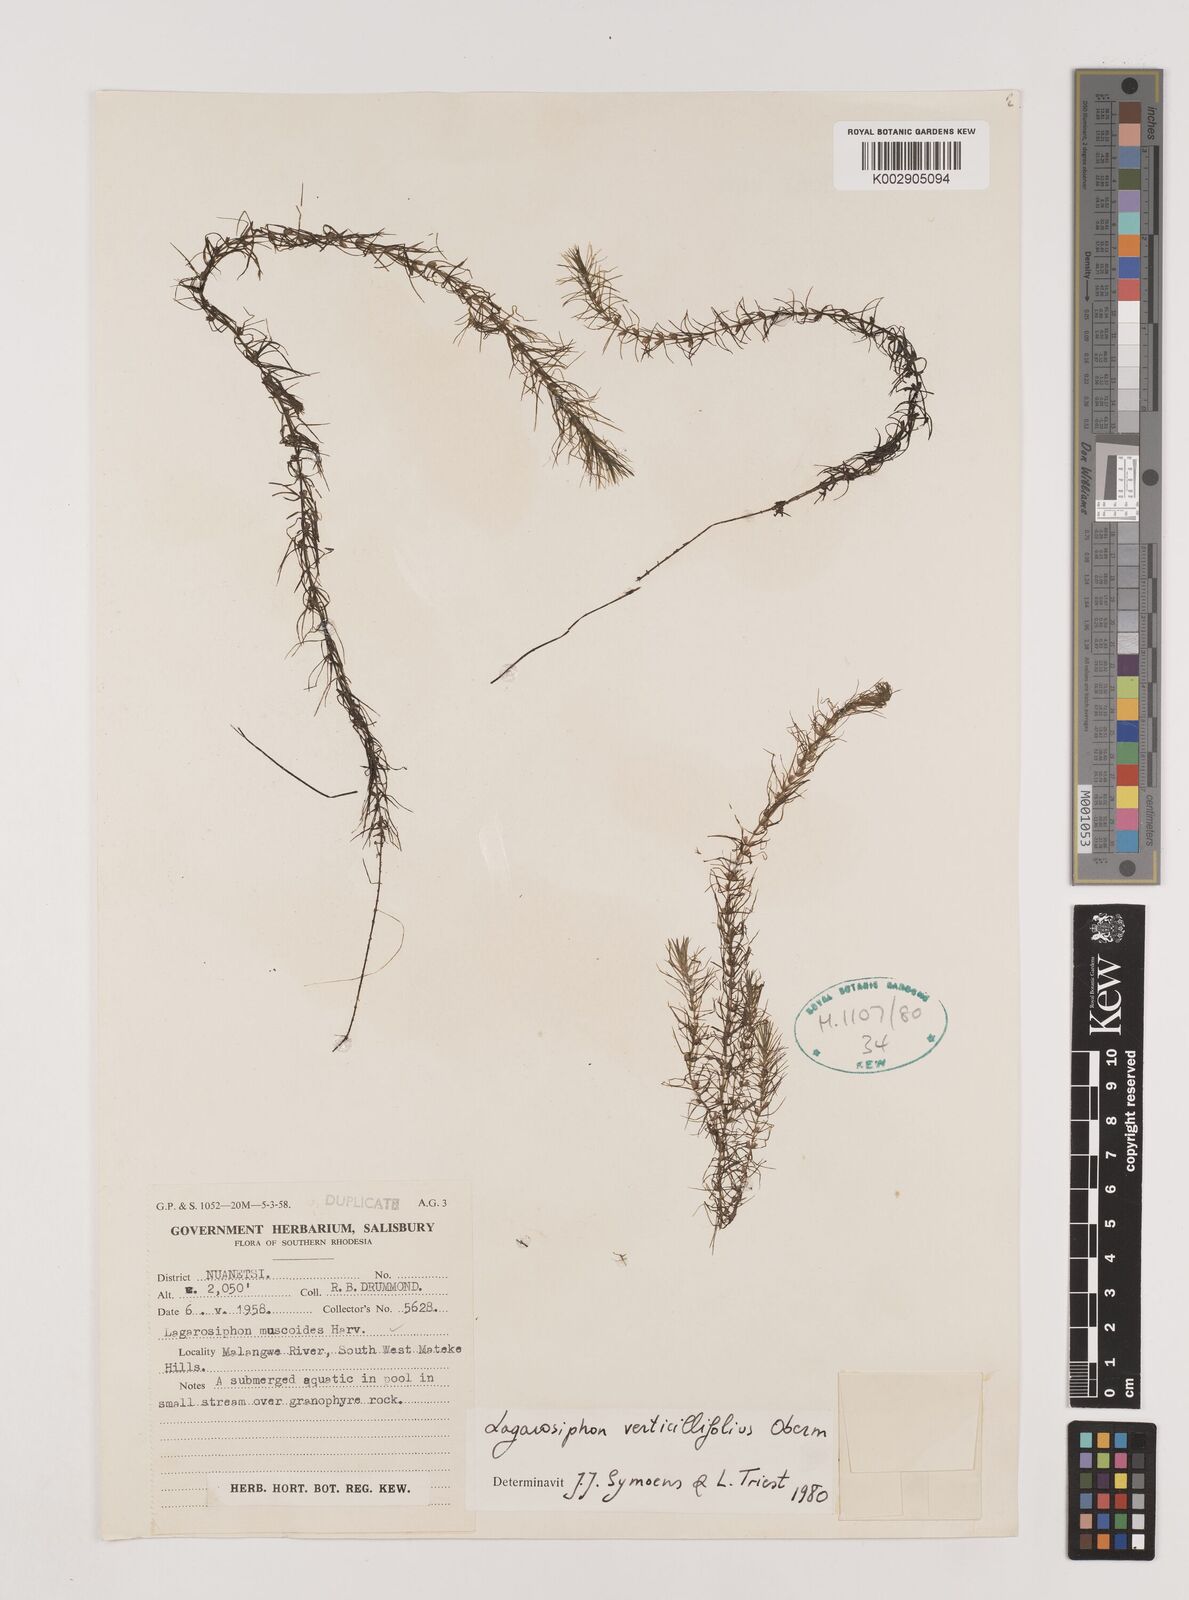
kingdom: Plantae
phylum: Tracheophyta
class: Liliopsida
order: Alismatales
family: Hydrocharitaceae
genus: Lagarosiphon
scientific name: Lagarosiphon verticillifolius
